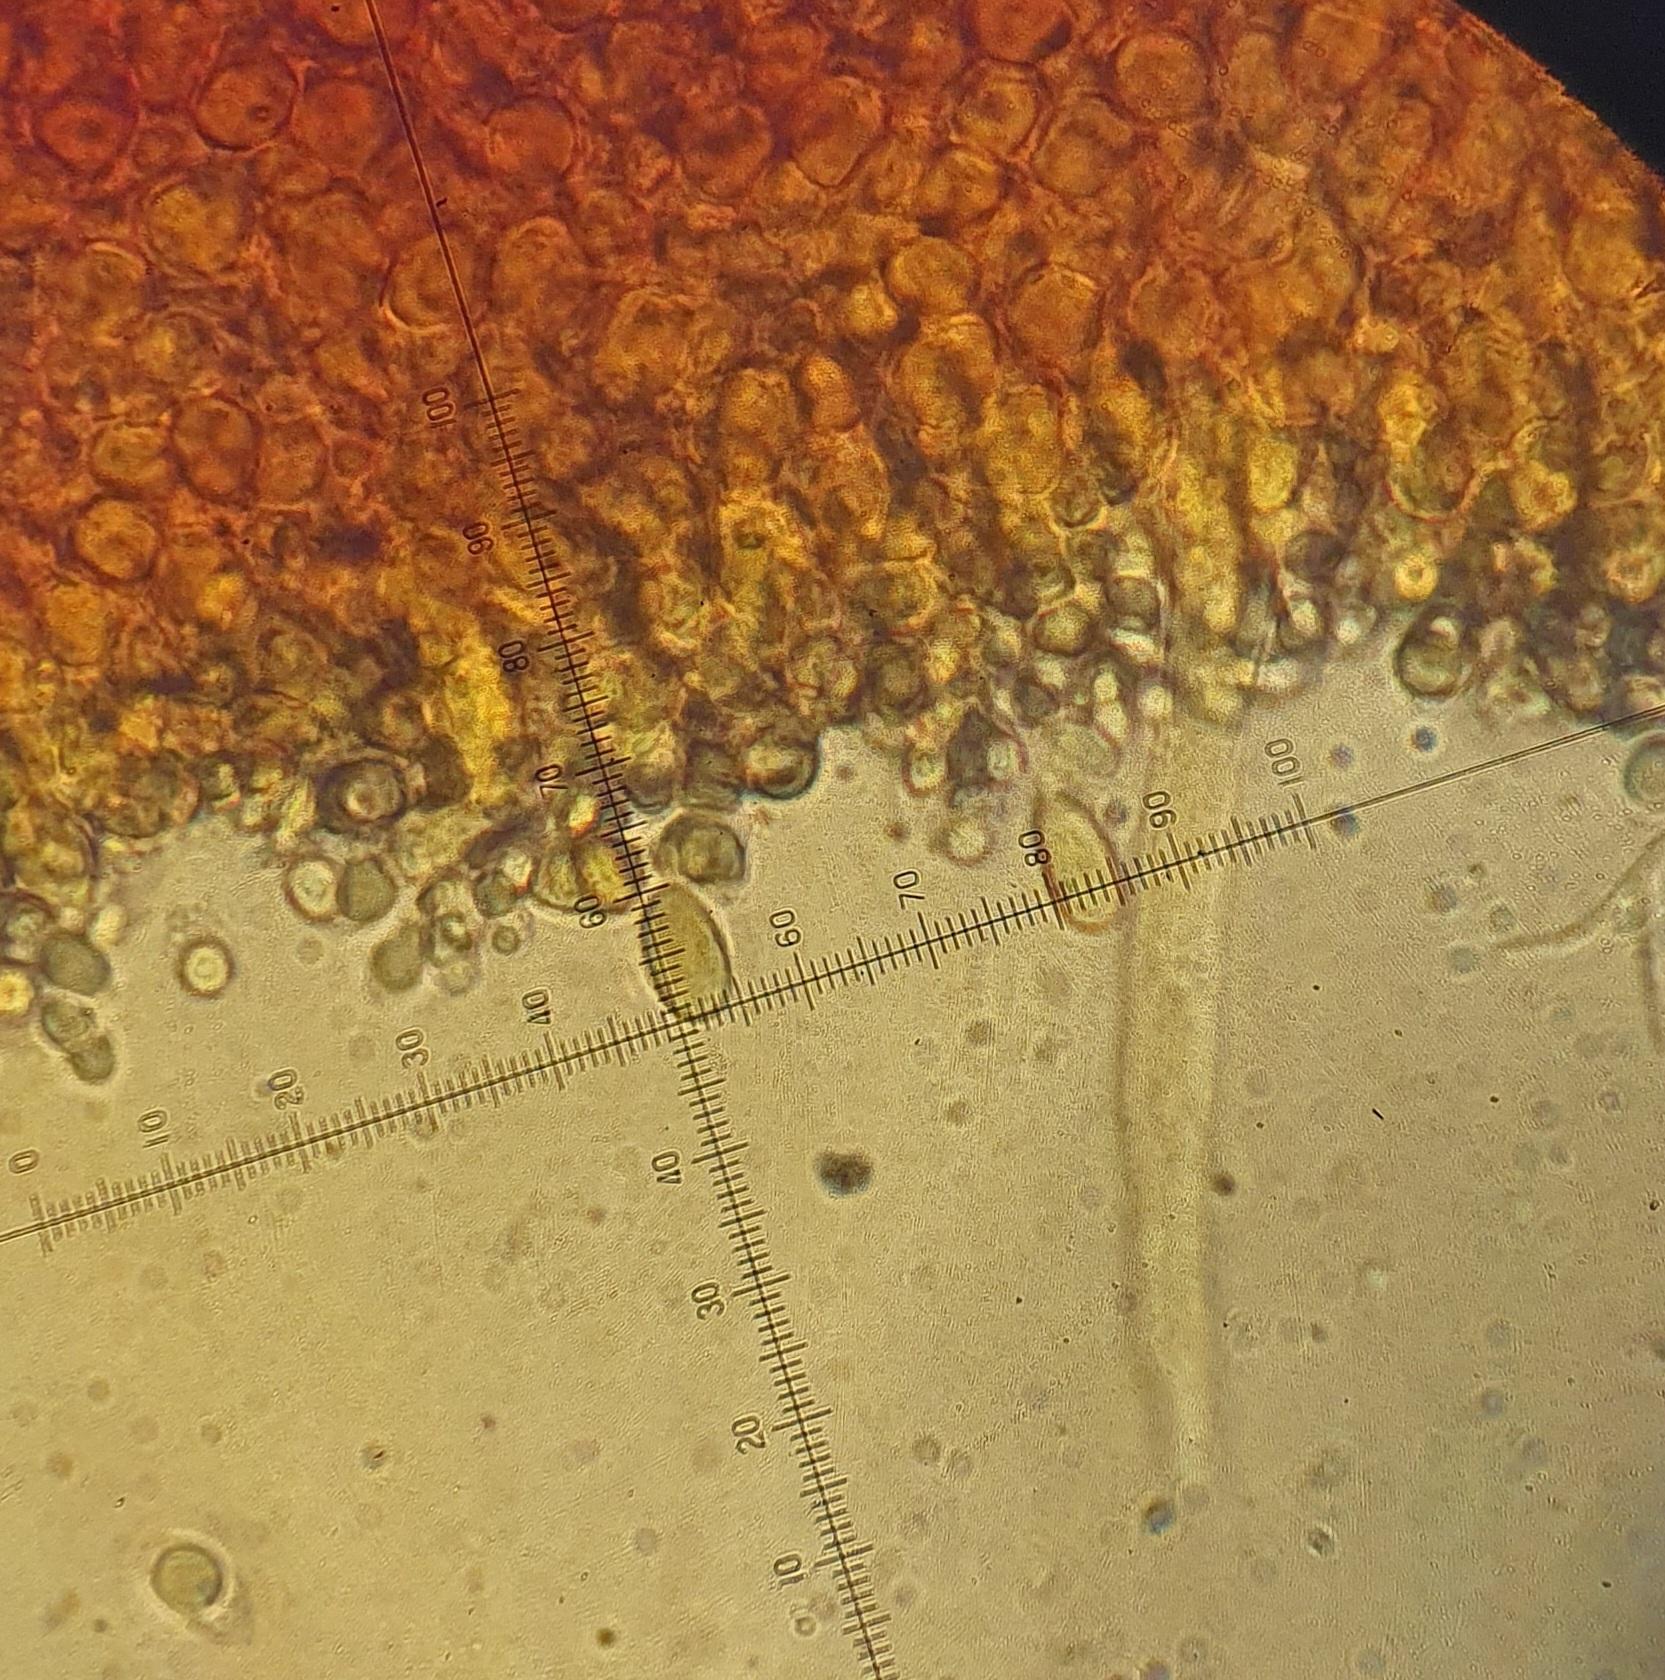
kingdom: Fungi
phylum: Basidiomycota
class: Agaricomycetes
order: Agaricales
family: Mycenaceae
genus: Mycena
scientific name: Mycena galopus
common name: hvidmælket huesvamp
